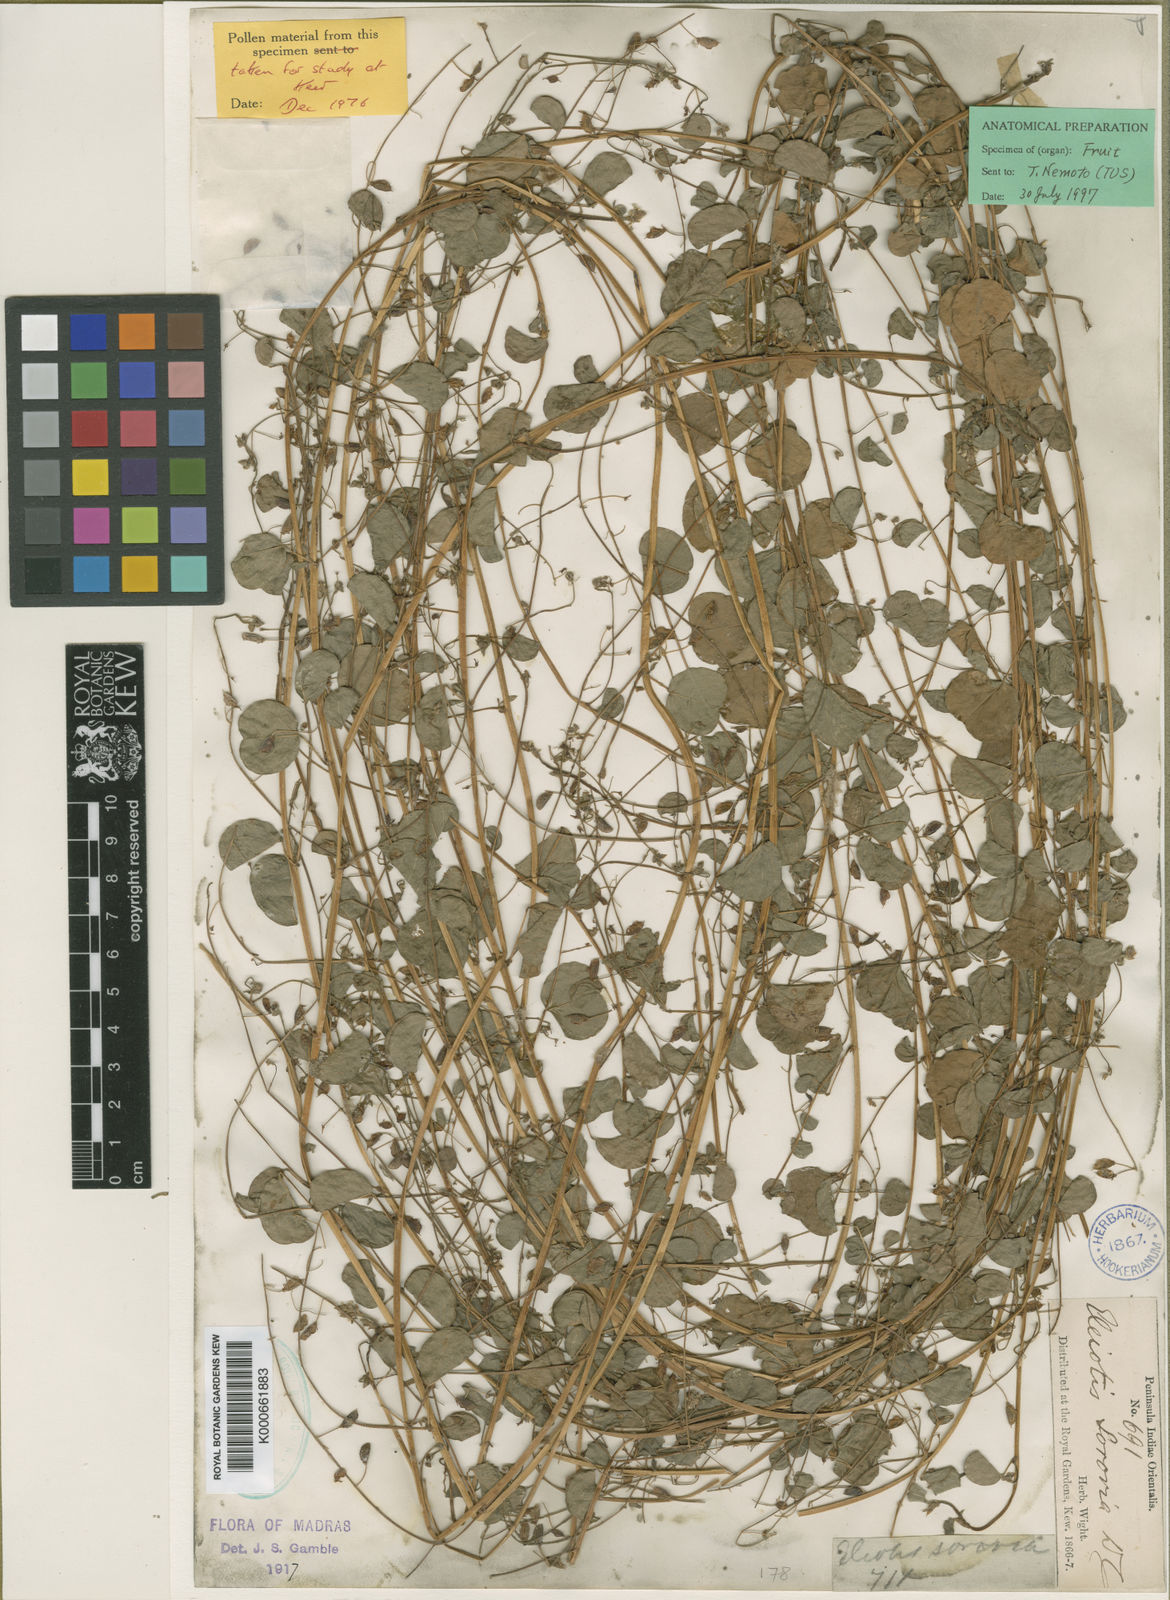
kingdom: Plantae
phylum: Tracheophyta
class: Magnoliopsida
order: Fabales
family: Fabaceae
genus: Eleiotis
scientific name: Eleiotis sororia
